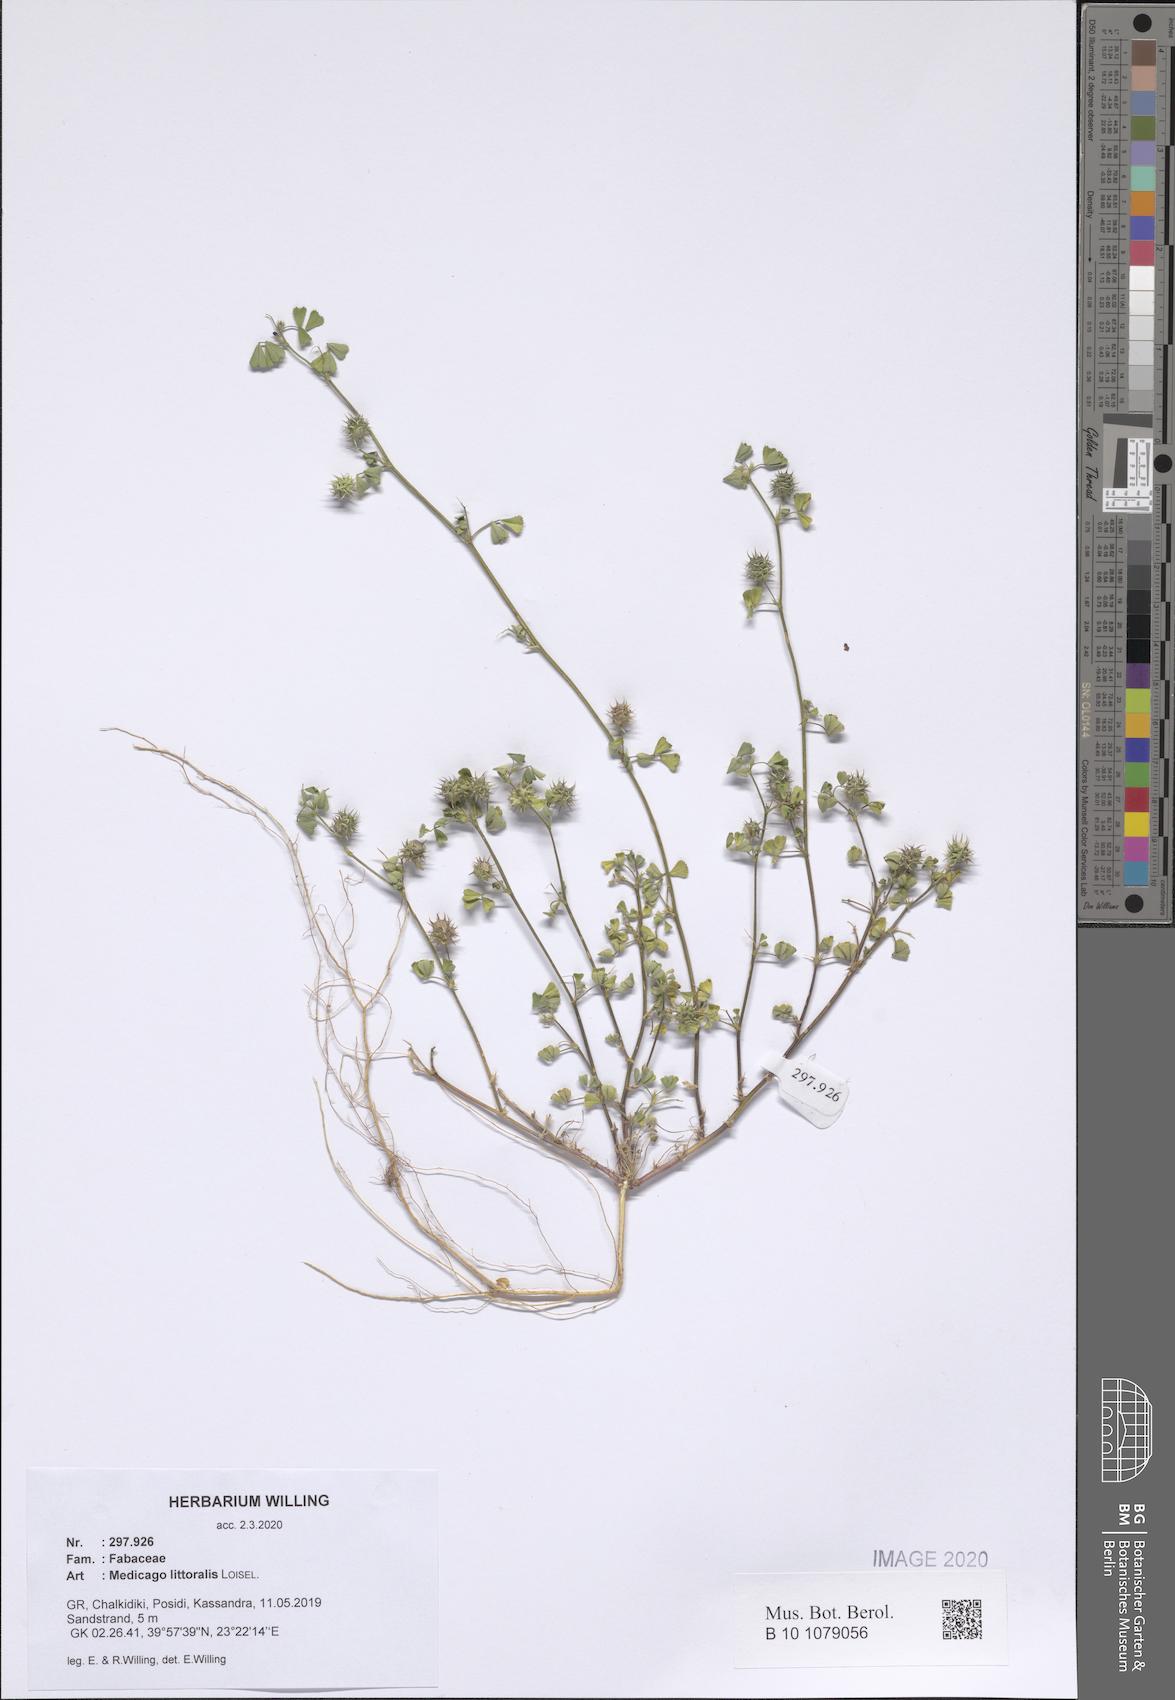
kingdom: Plantae
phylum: Tracheophyta
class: Magnoliopsida
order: Fabales
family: Fabaceae
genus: Medicago
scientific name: Medicago littoralis
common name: Shore medick
